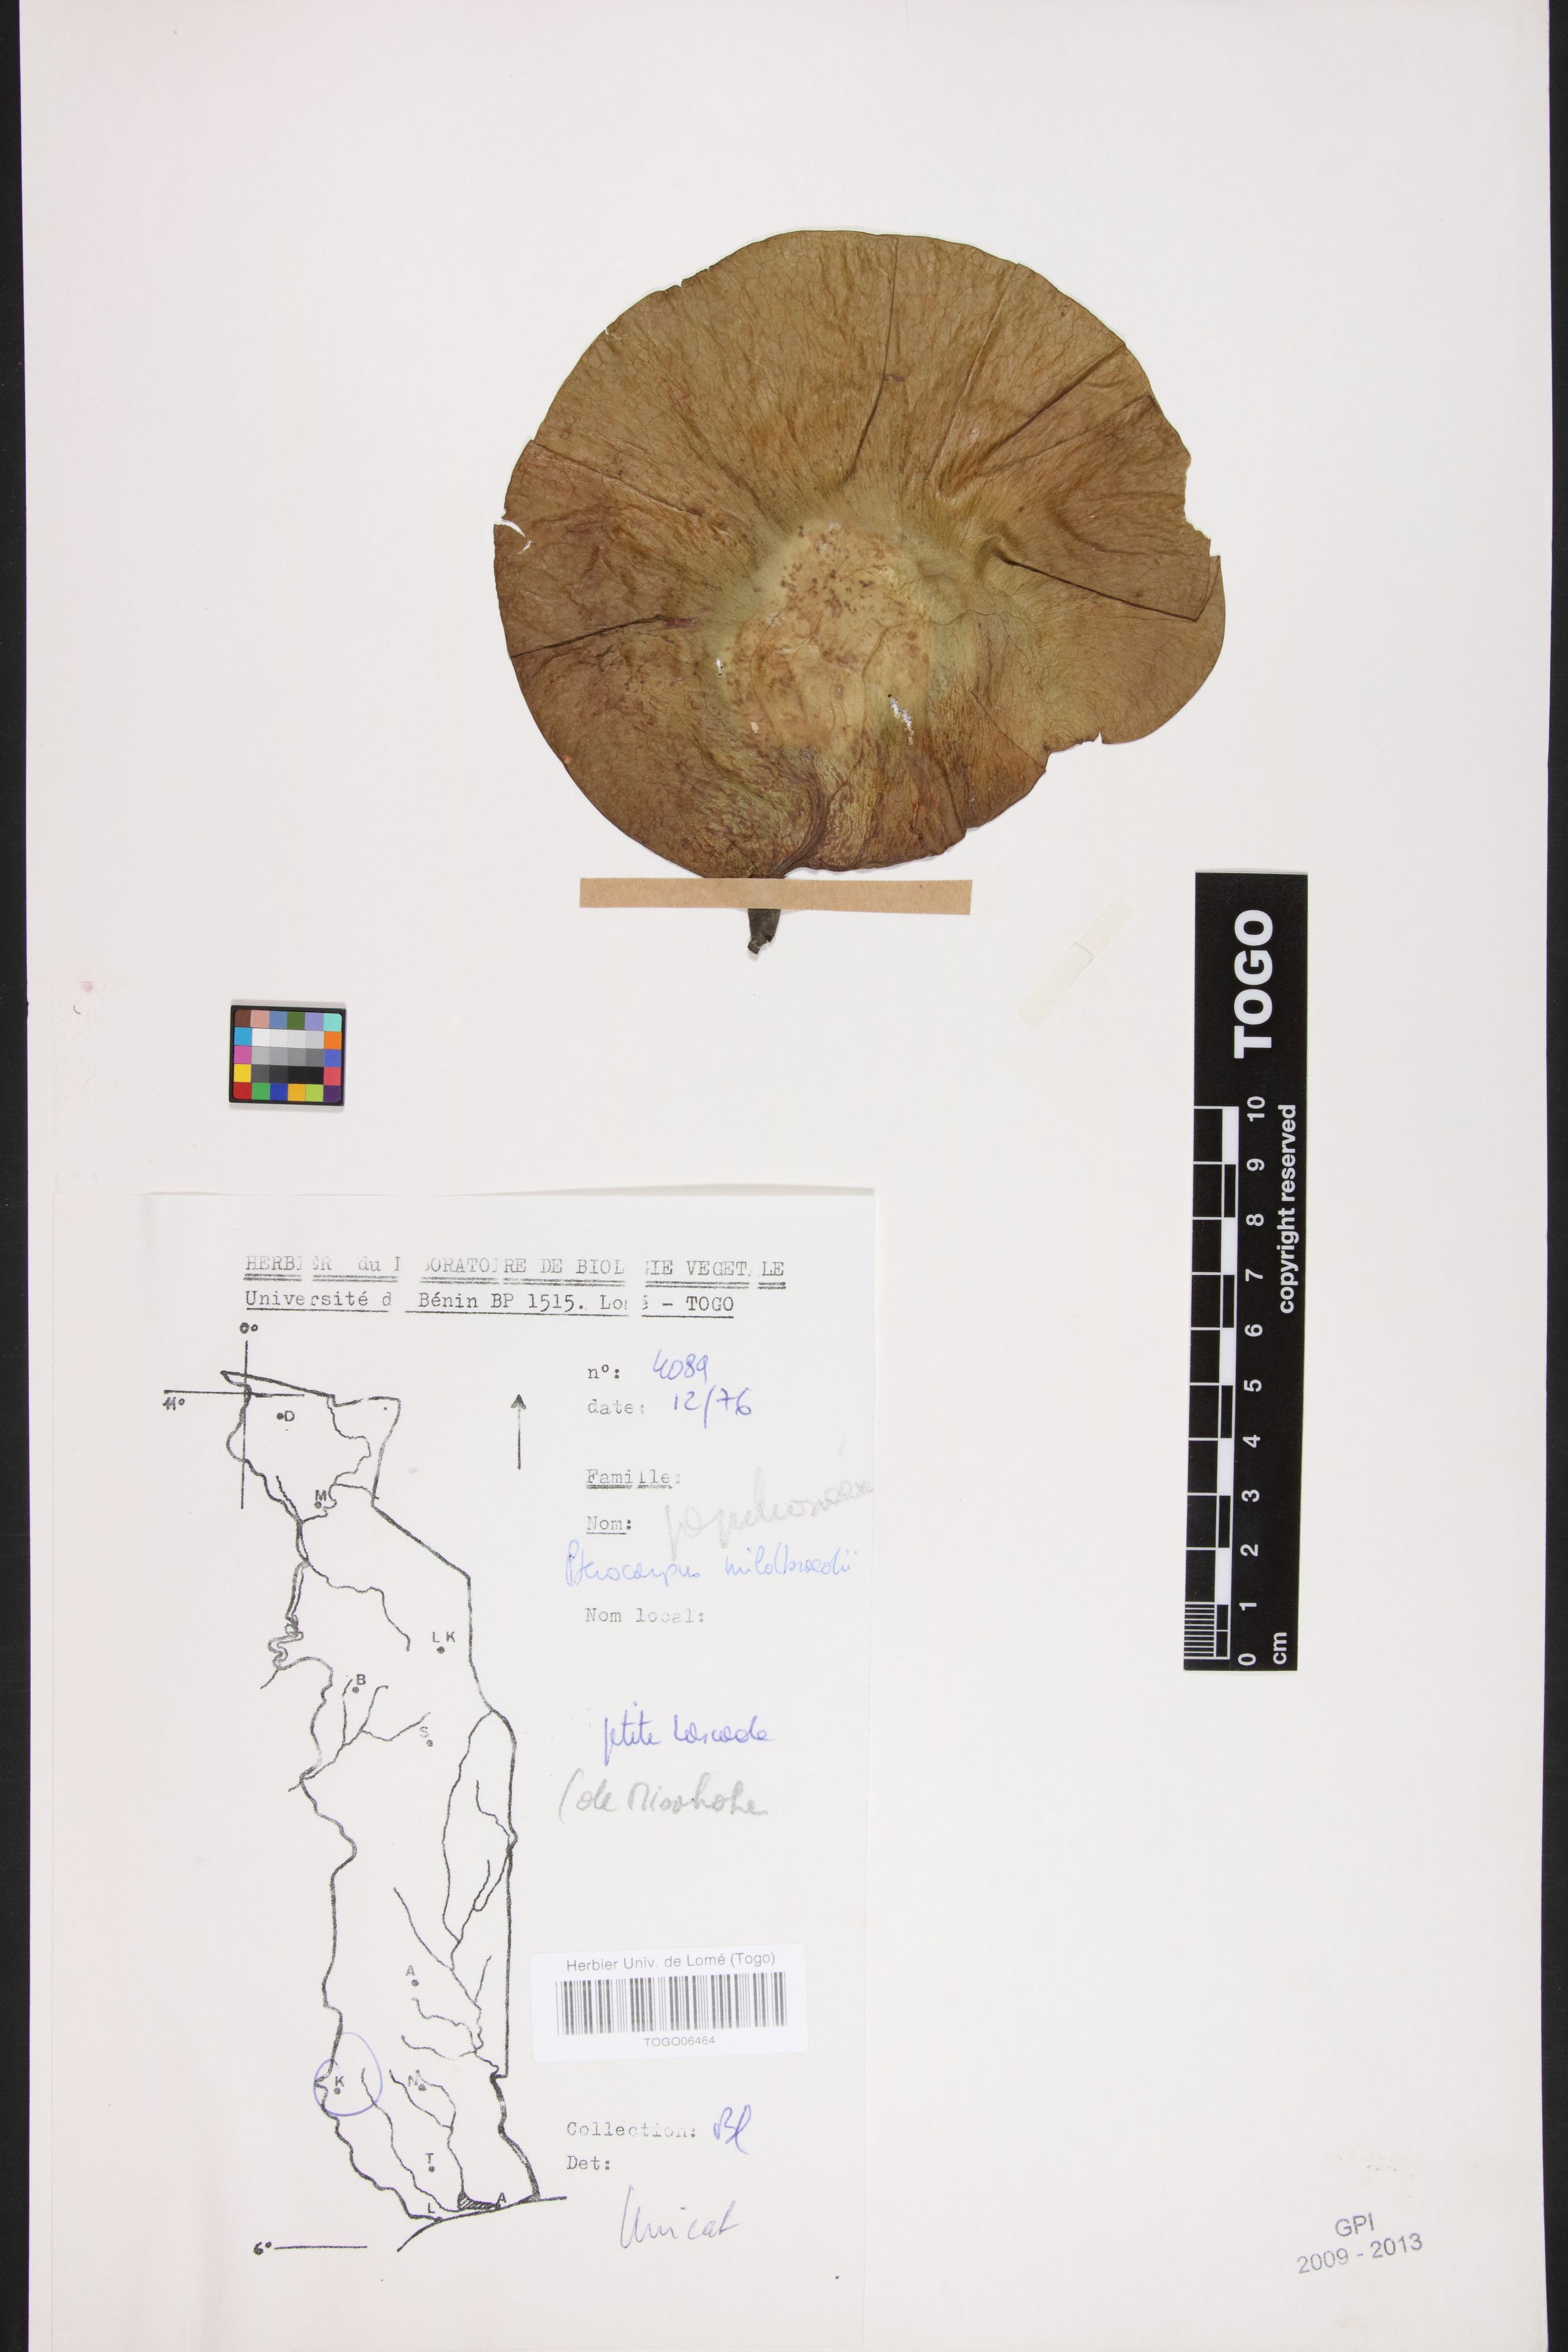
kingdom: Plantae
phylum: Tracheophyta
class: Magnoliopsida
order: Fabales
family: Fabaceae
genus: Pterocarpus
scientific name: Pterocarpus mildbraedii
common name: White padouk
